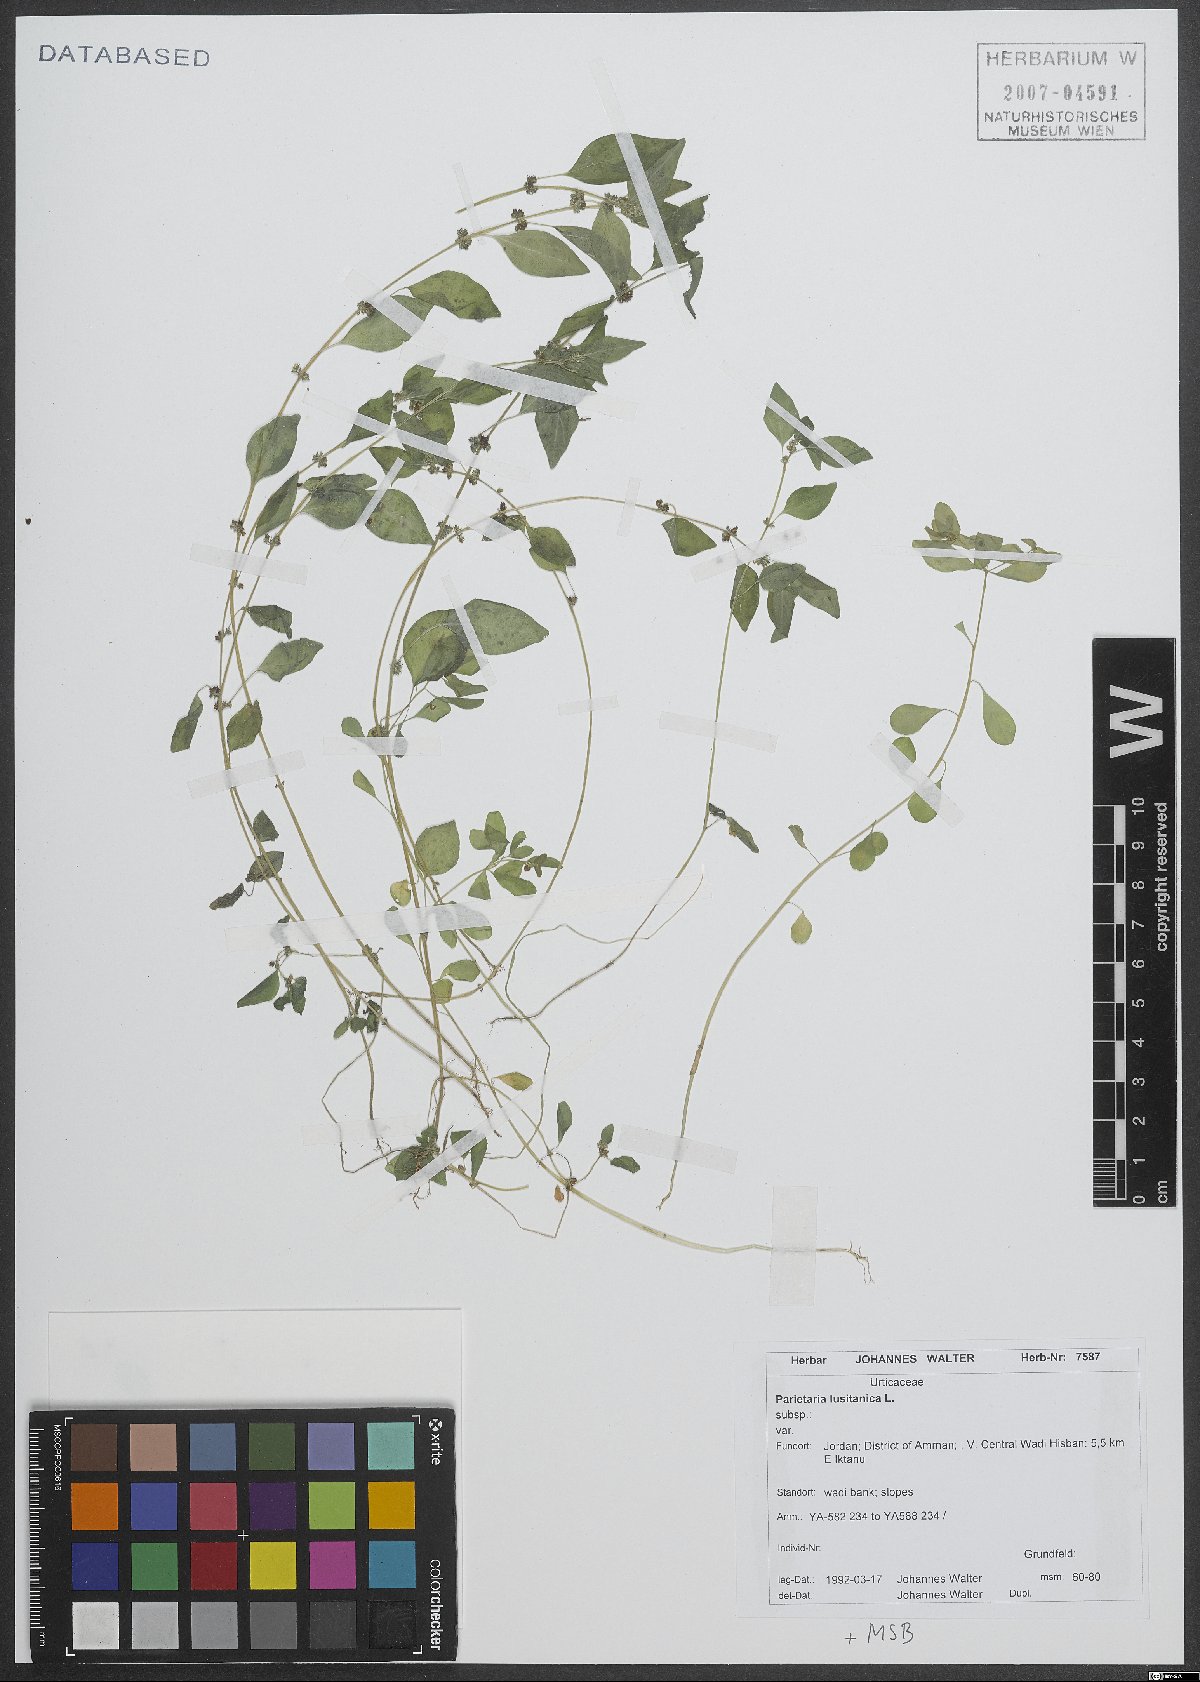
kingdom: Plantae
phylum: Tracheophyta
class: Magnoliopsida
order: Rosales
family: Urticaceae
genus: Parietaria
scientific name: Parietaria lusitanica
